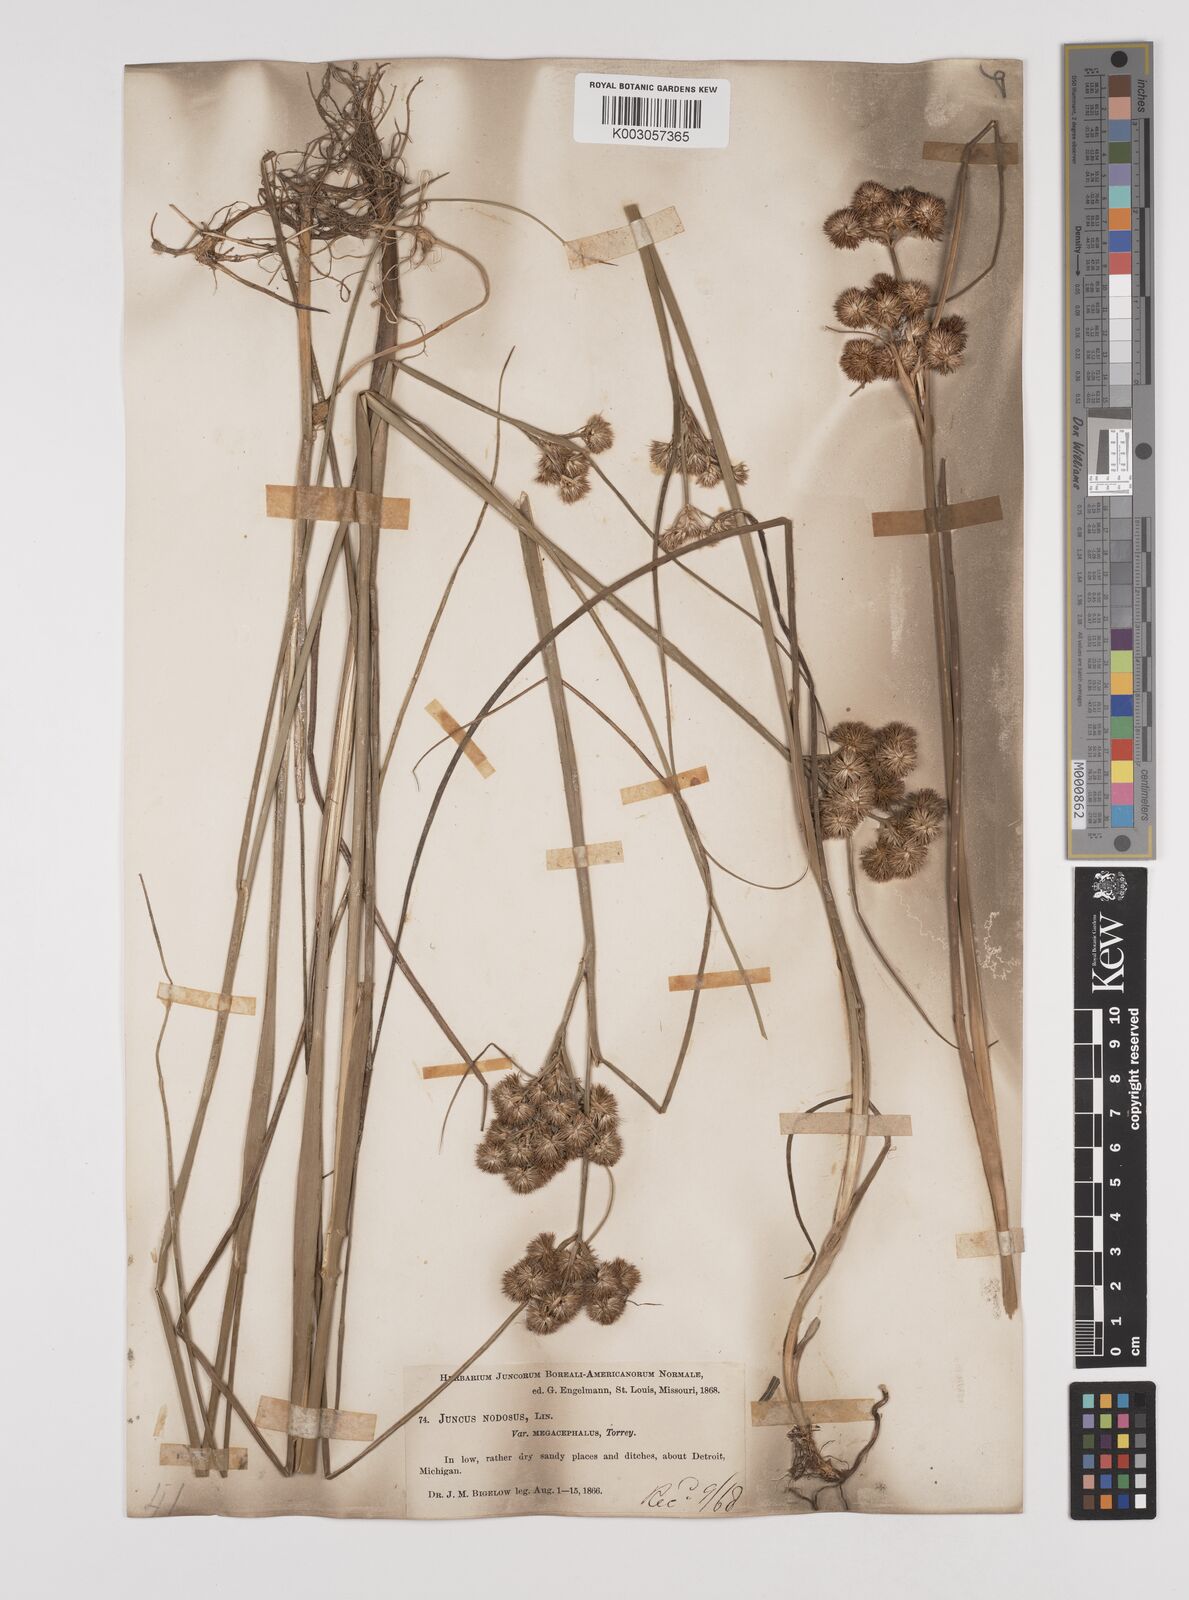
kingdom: Plantae
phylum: Tracheophyta
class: Liliopsida
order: Poales
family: Juncaceae
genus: Juncus
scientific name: Juncus nodosus
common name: Knotted rush
